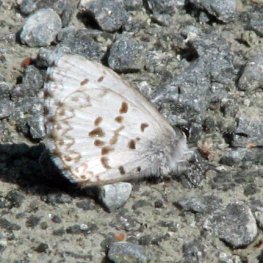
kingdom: Animalia
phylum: Arthropoda
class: Insecta
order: Lepidoptera
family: Lycaenidae
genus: Celastrina
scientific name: Celastrina lucia
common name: Northern Spring Azure
